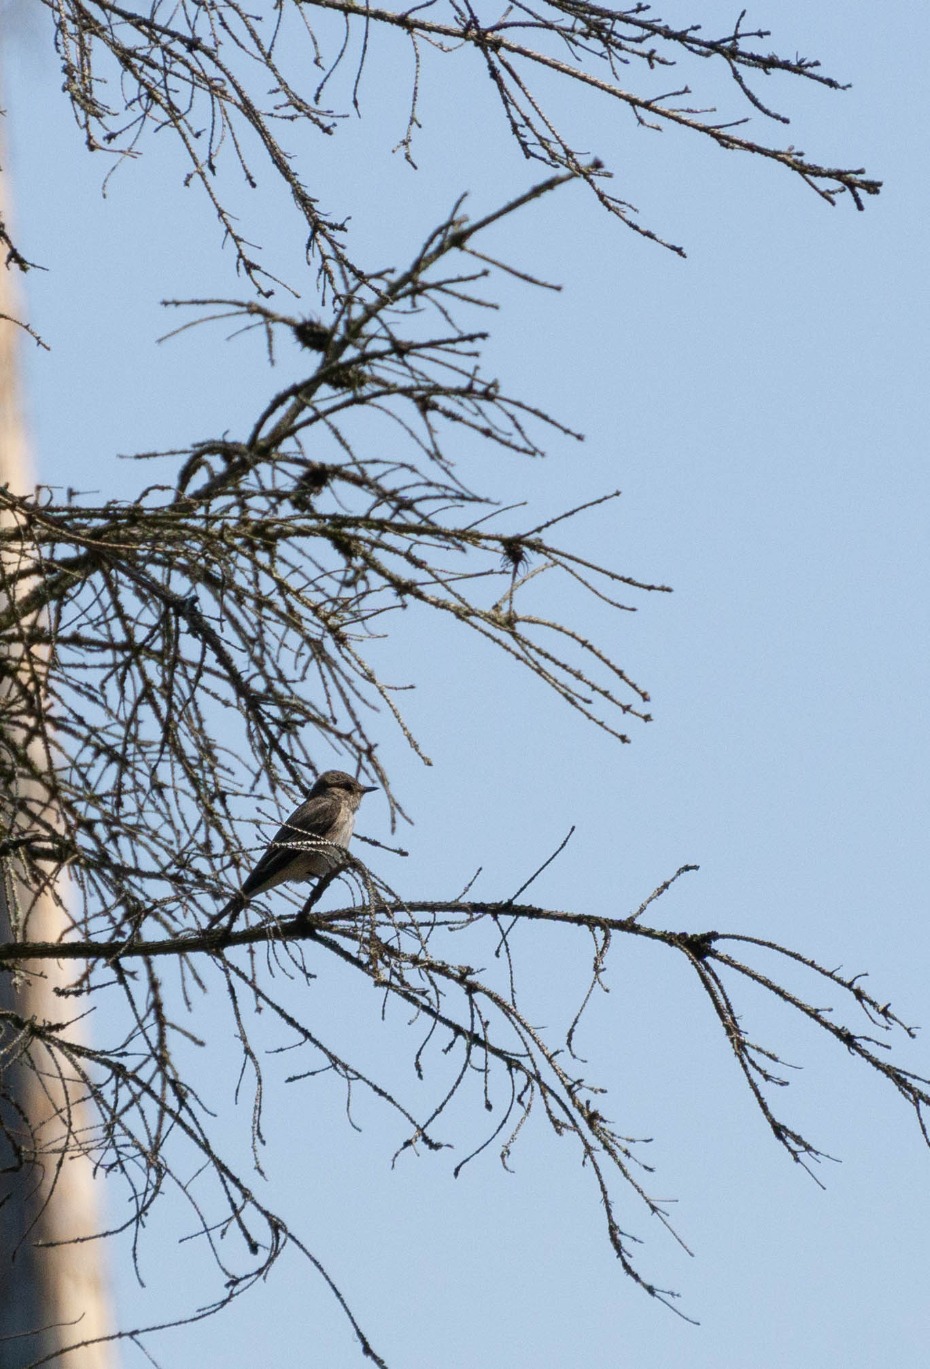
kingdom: Animalia
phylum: Chordata
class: Aves
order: Passeriformes
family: Muscicapidae
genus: Muscicapa
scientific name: Muscicapa striata
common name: Grå fluesnapper
